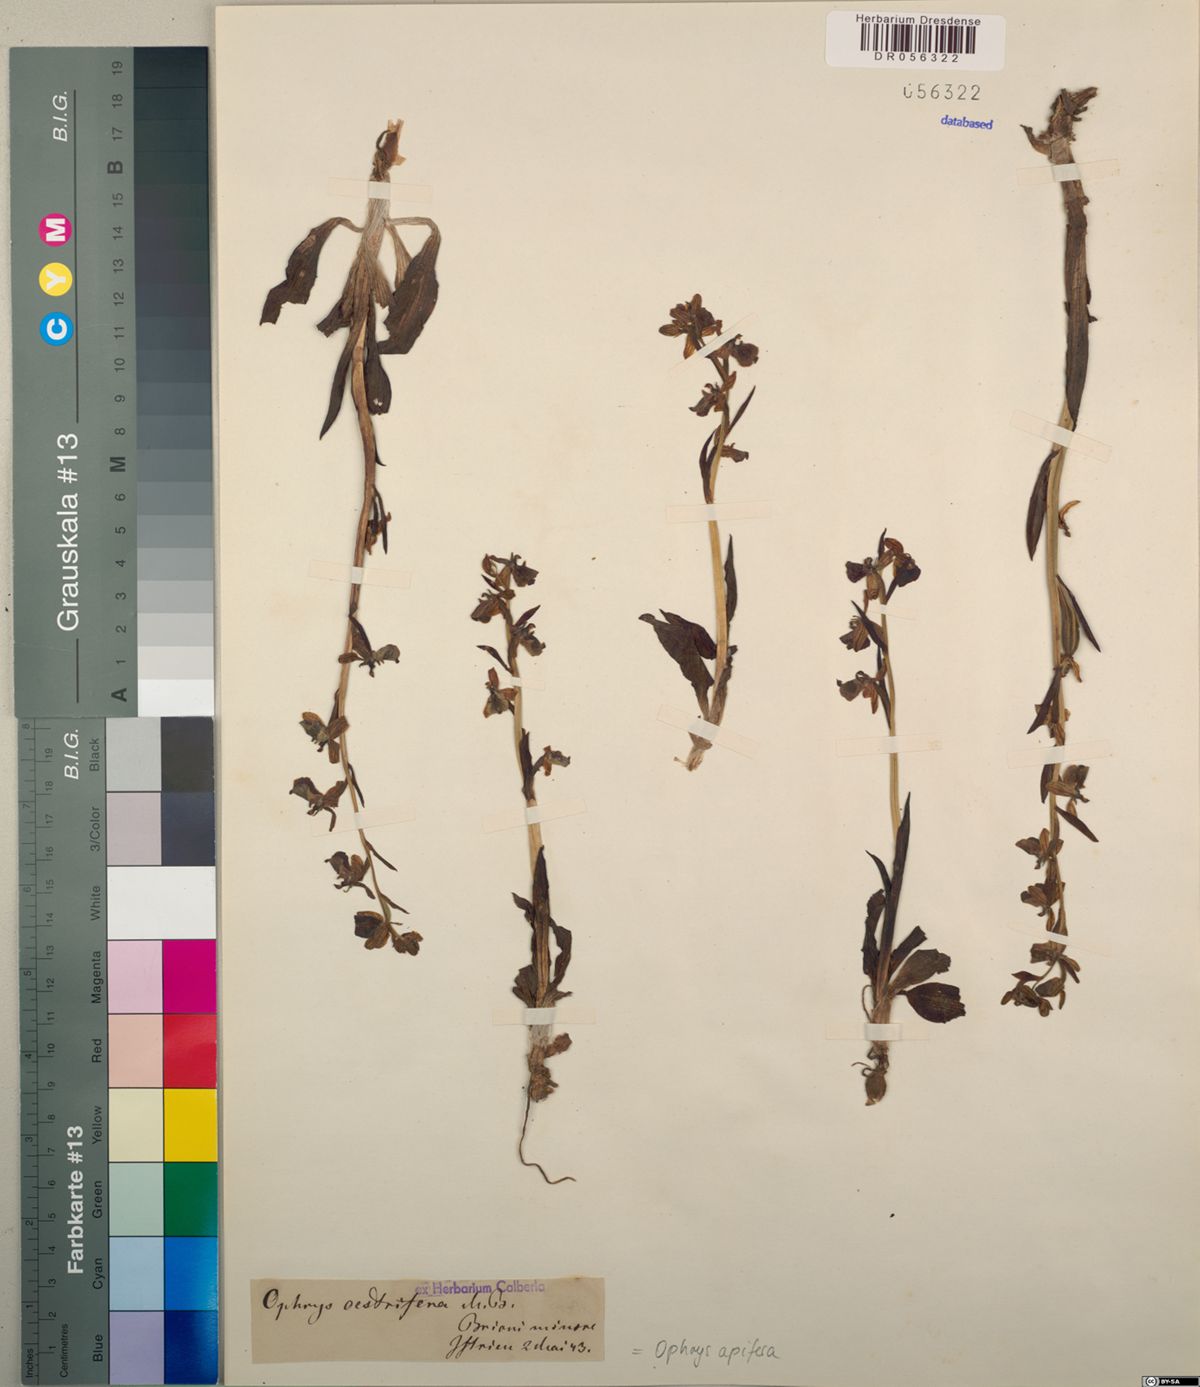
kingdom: Plantae
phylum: Tracheophyta
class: Liliopsida
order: Asparagales
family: Orchidaceae
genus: Ophrys
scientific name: Ophrys apifera
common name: Bee orchid
